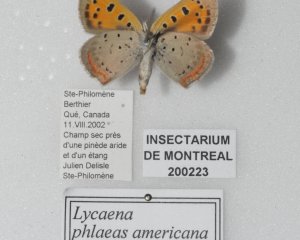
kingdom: Animalia
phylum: Arthropoda
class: Insecta
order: Lepidoptera
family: Lycaenidae
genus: Lycaena
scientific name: Lycaena phlaeas
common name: American Copper
